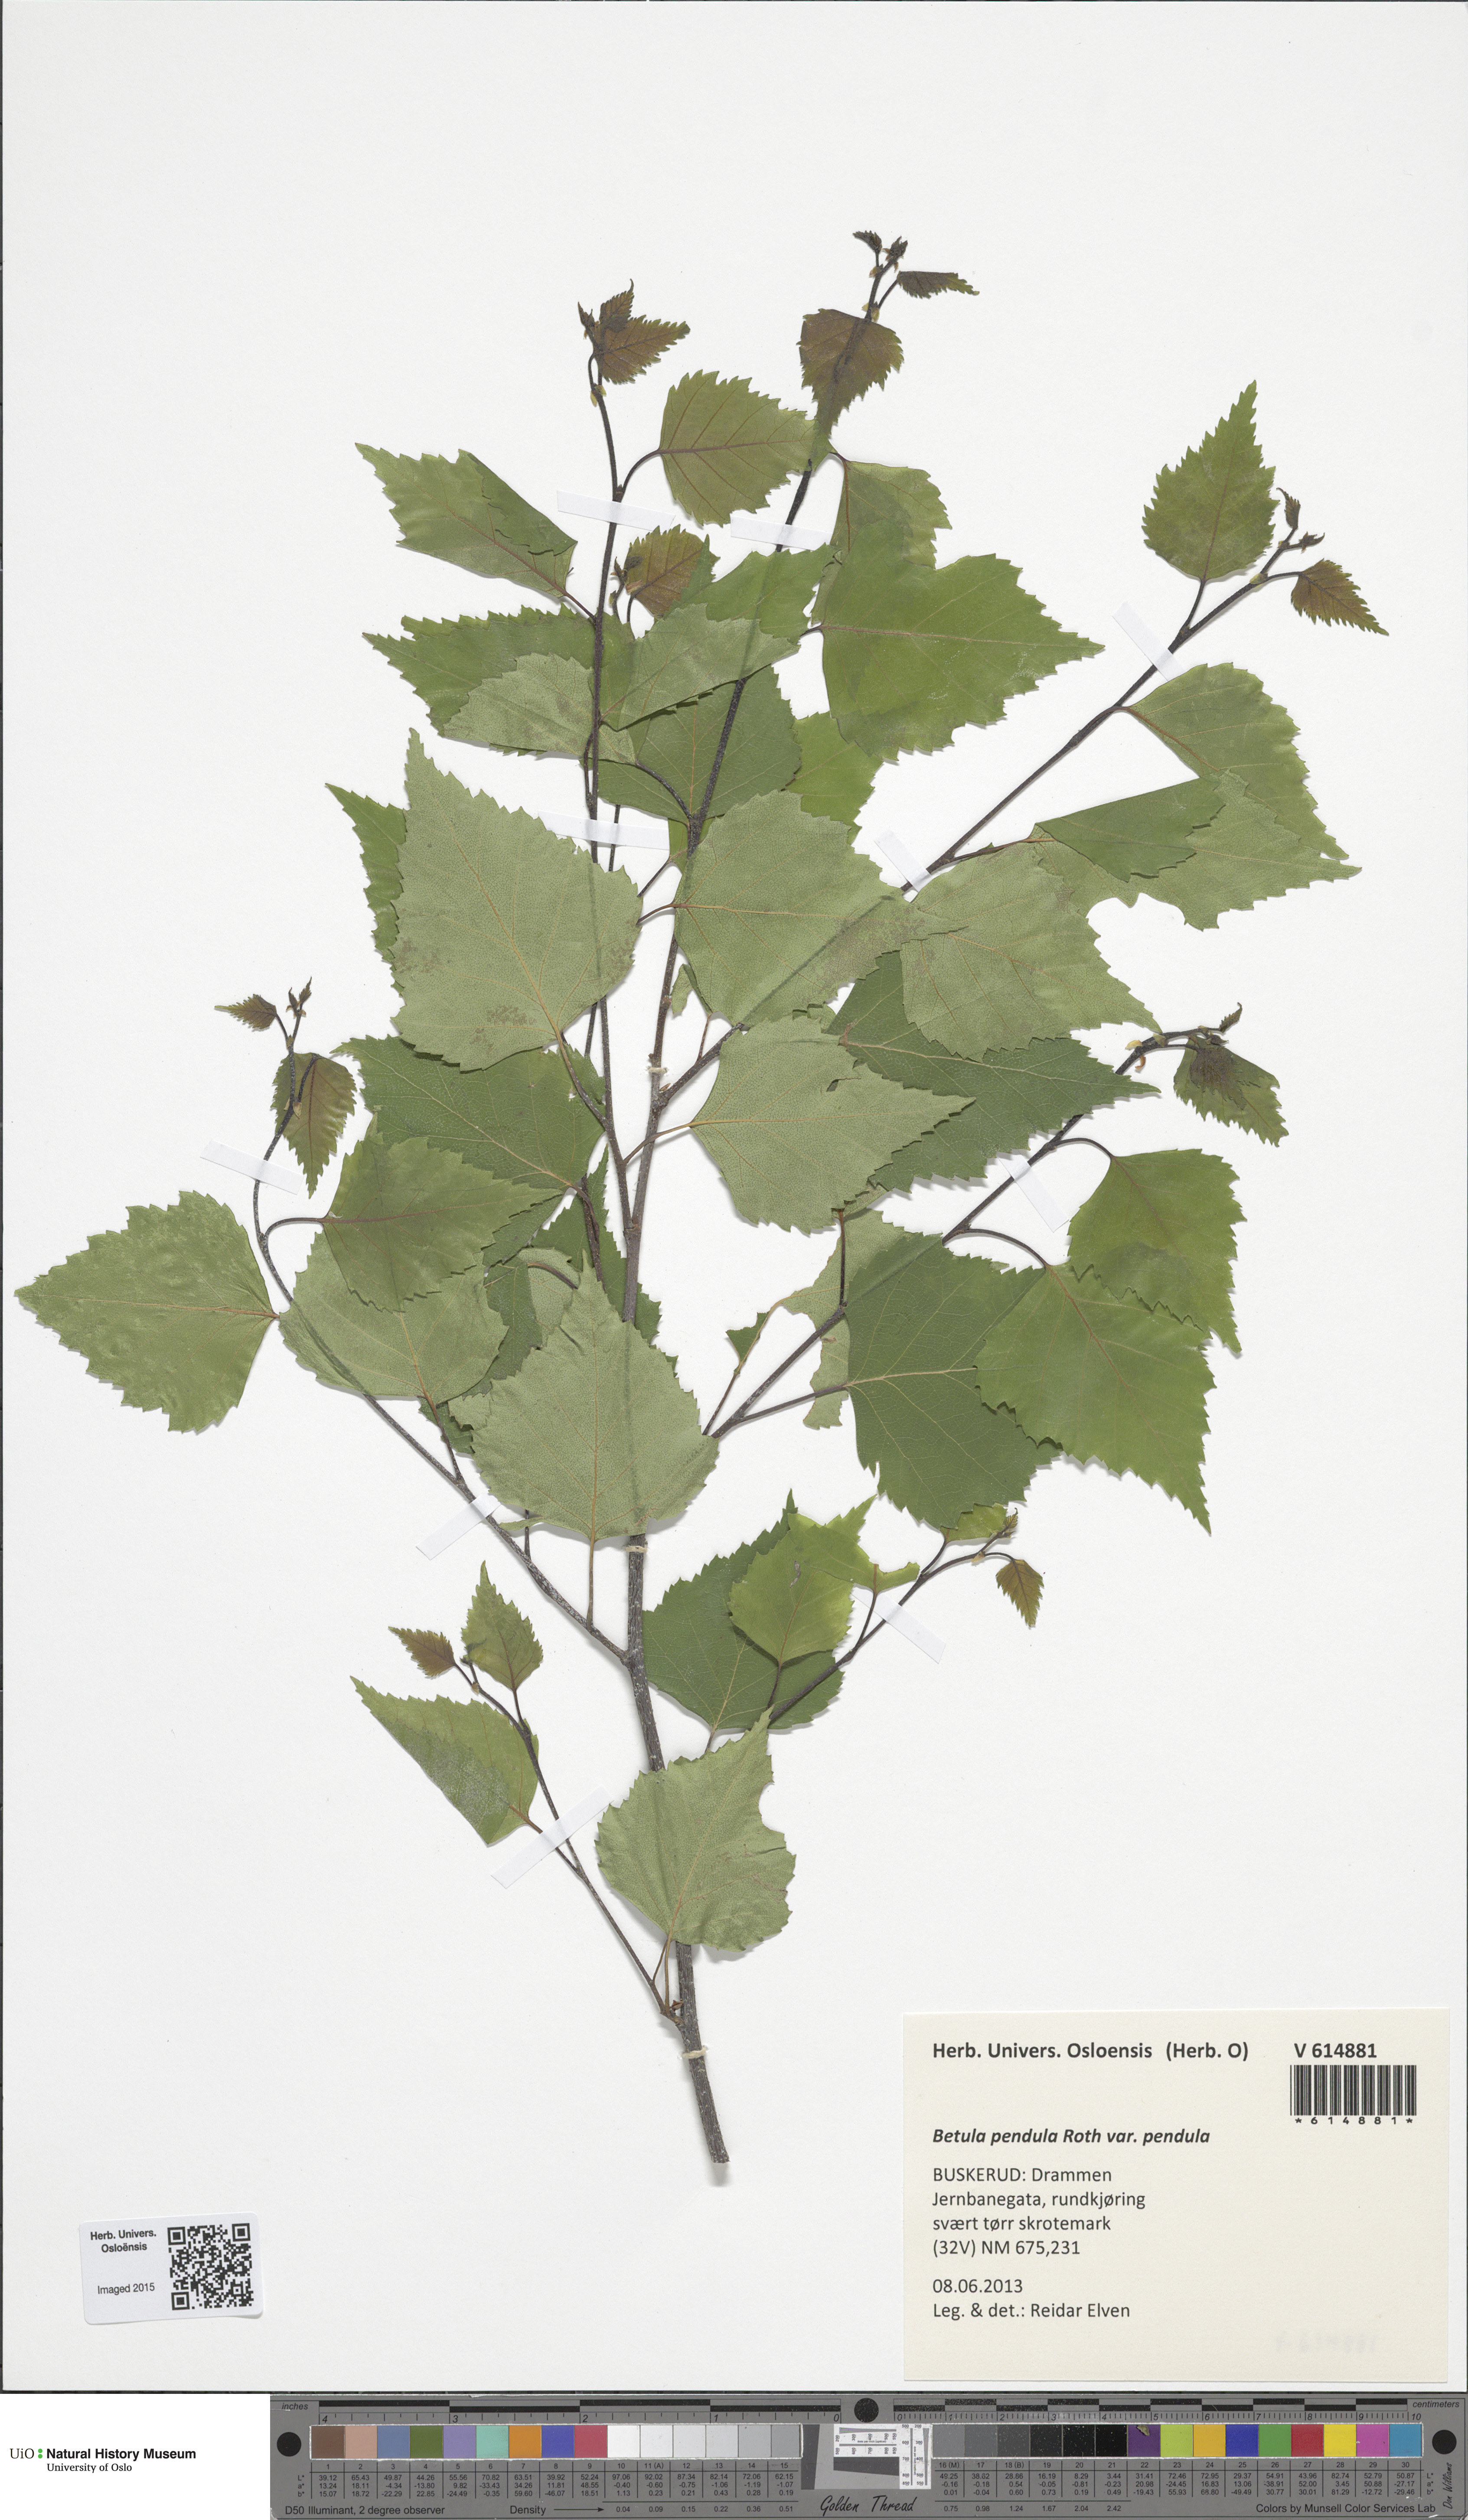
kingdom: Plantae
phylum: Tracheophyta
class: Magnoliopsida
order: Fagales
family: Betulaceae
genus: Betula
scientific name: Betula pendula
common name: Silver birch
